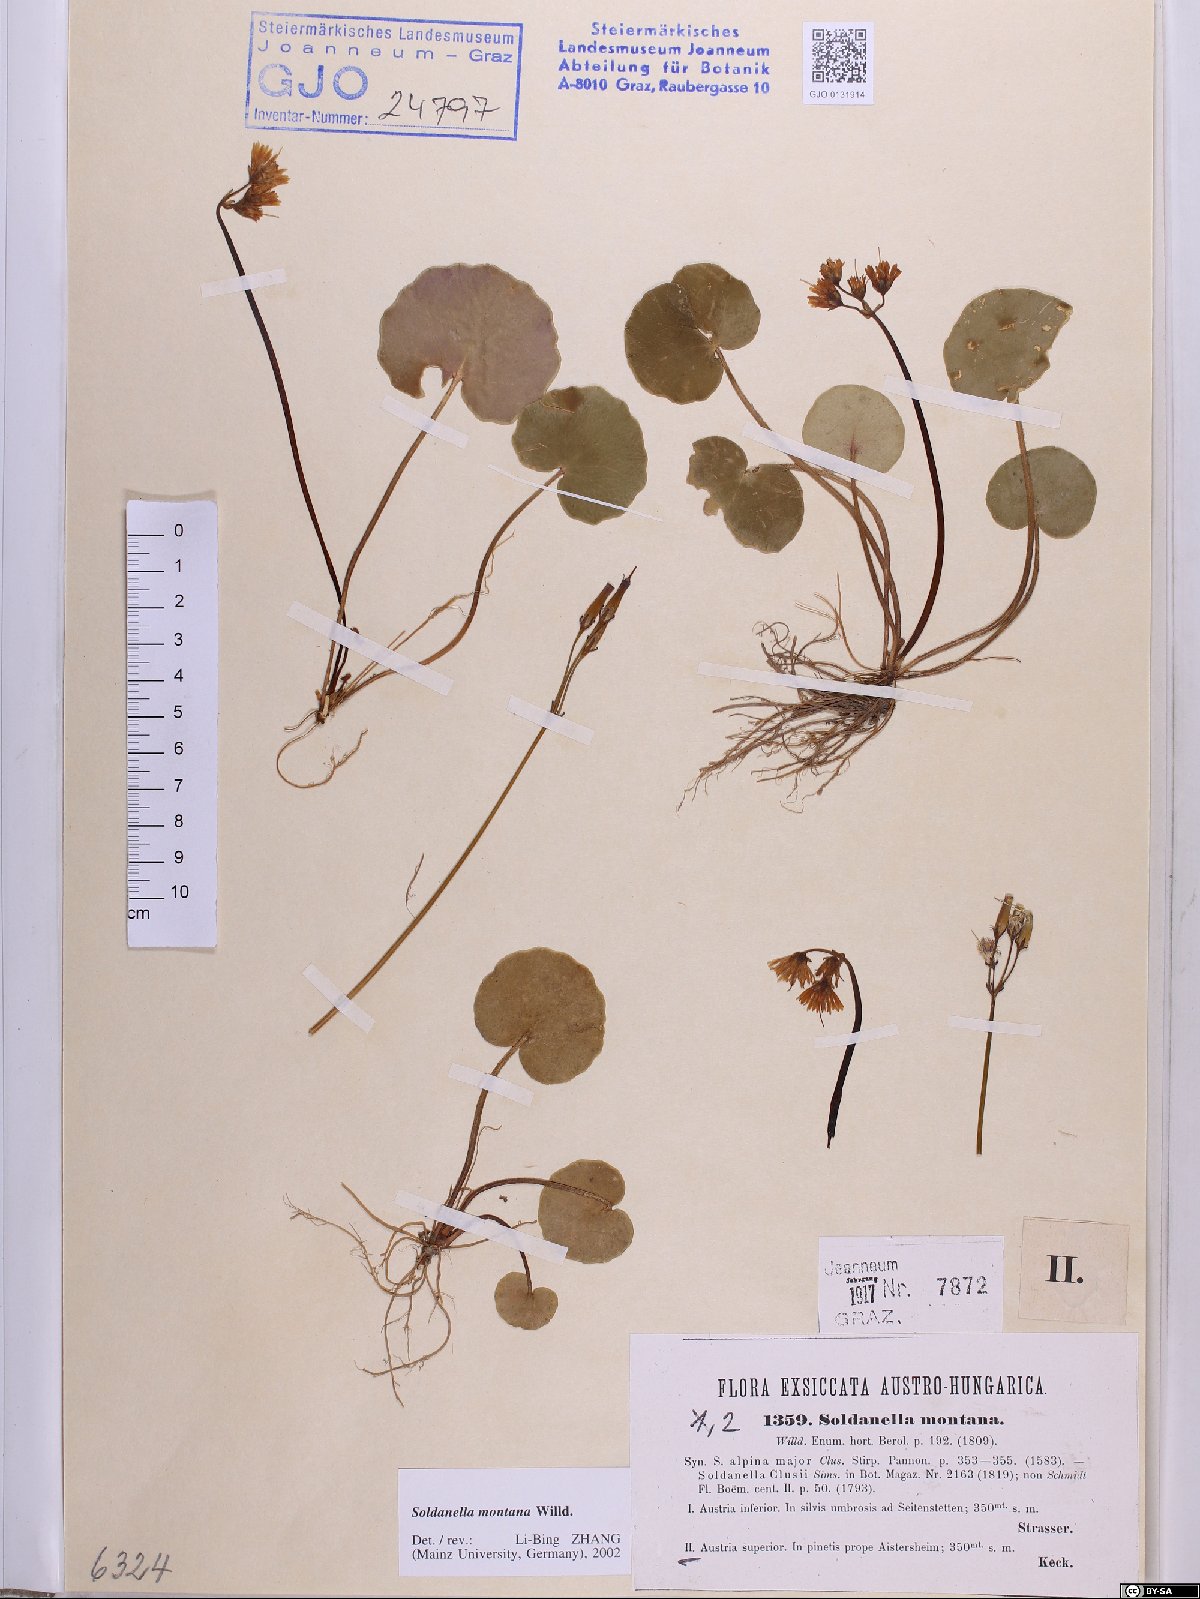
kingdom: Plantae
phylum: Tracheophyta
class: Magnoliopsida
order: Ericales
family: Primulaceae
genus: Soldanella
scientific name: Soldanella montana
